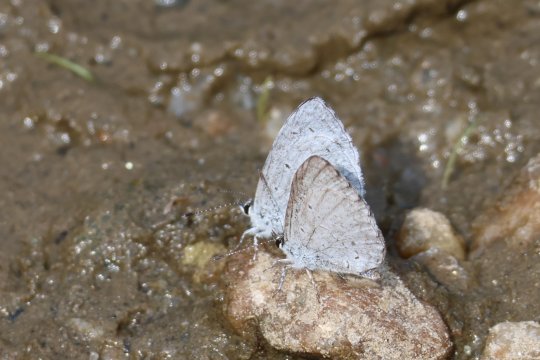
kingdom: Animalia
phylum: Arthropoda
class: Insecta
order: Lepidoptera
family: Lycaenidae
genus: Cyaniris
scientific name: Cyaniris neglecta
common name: Summer Azure
